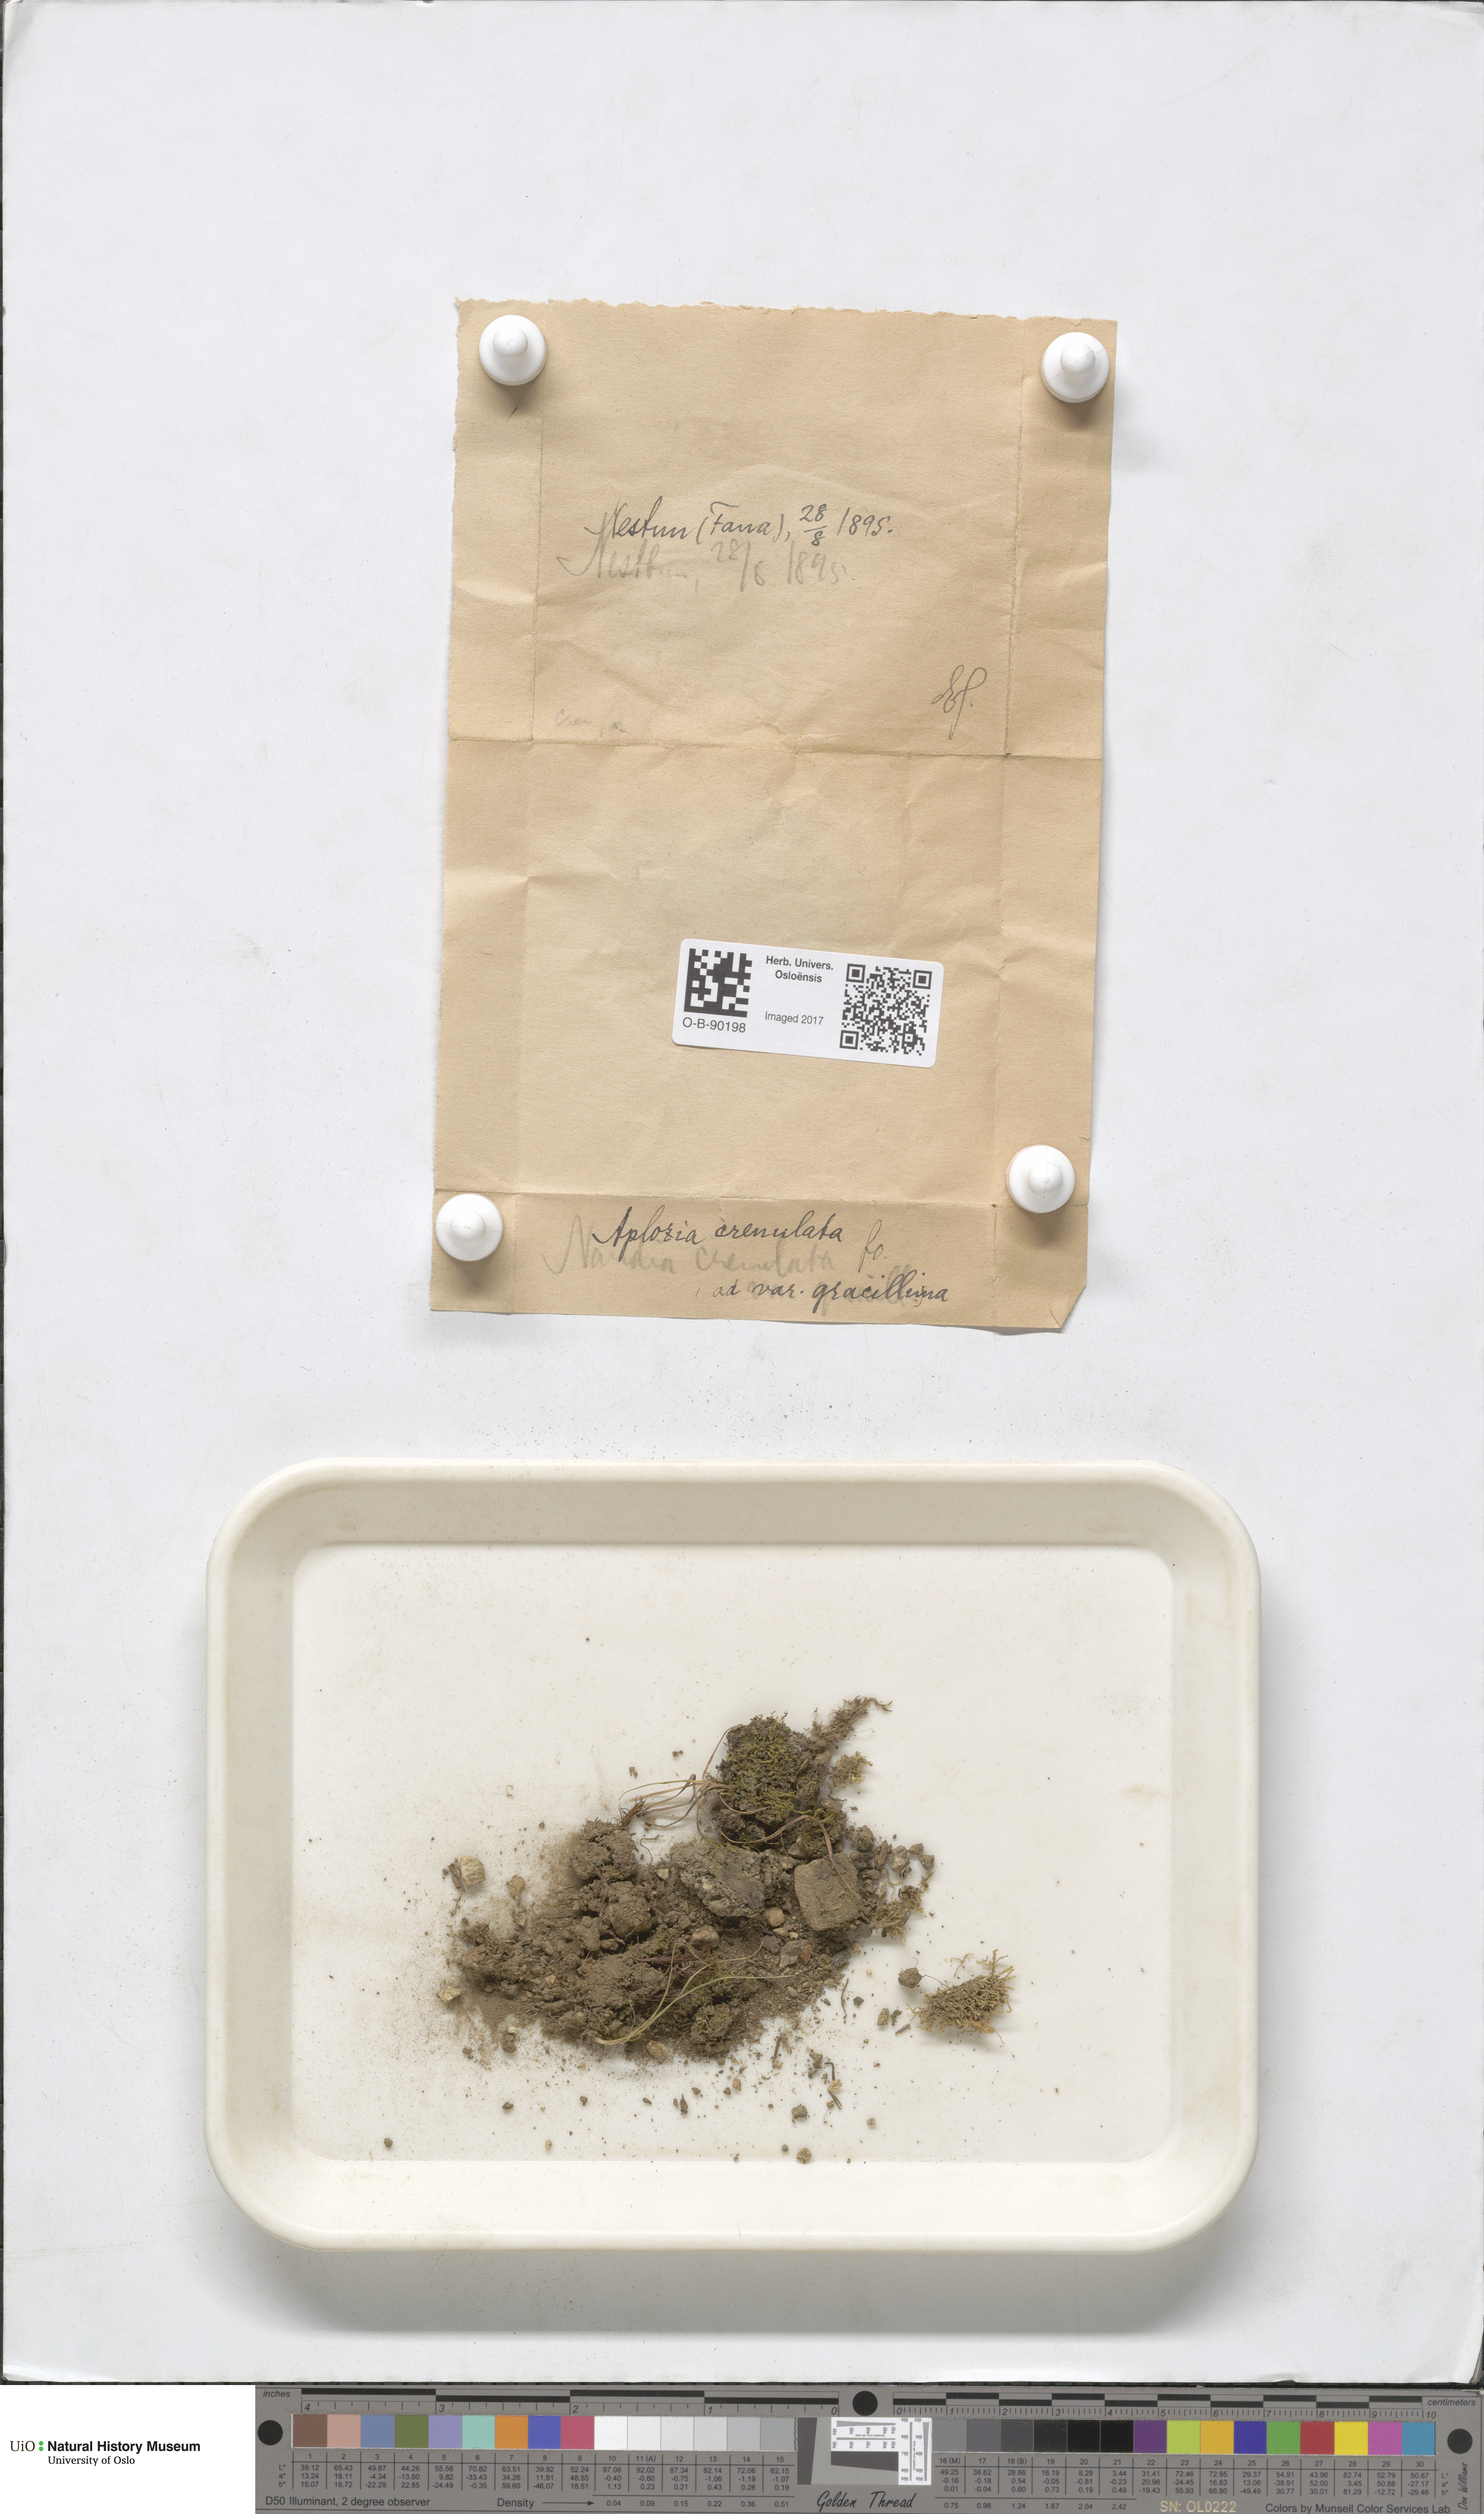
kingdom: Plantae
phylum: Marchantiophyta
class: Jungermanniopsida
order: Jungermanniales
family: Solenostomataceae
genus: Solenostoma
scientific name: Solenostoma gracillimum
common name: Crenulated flapwort
